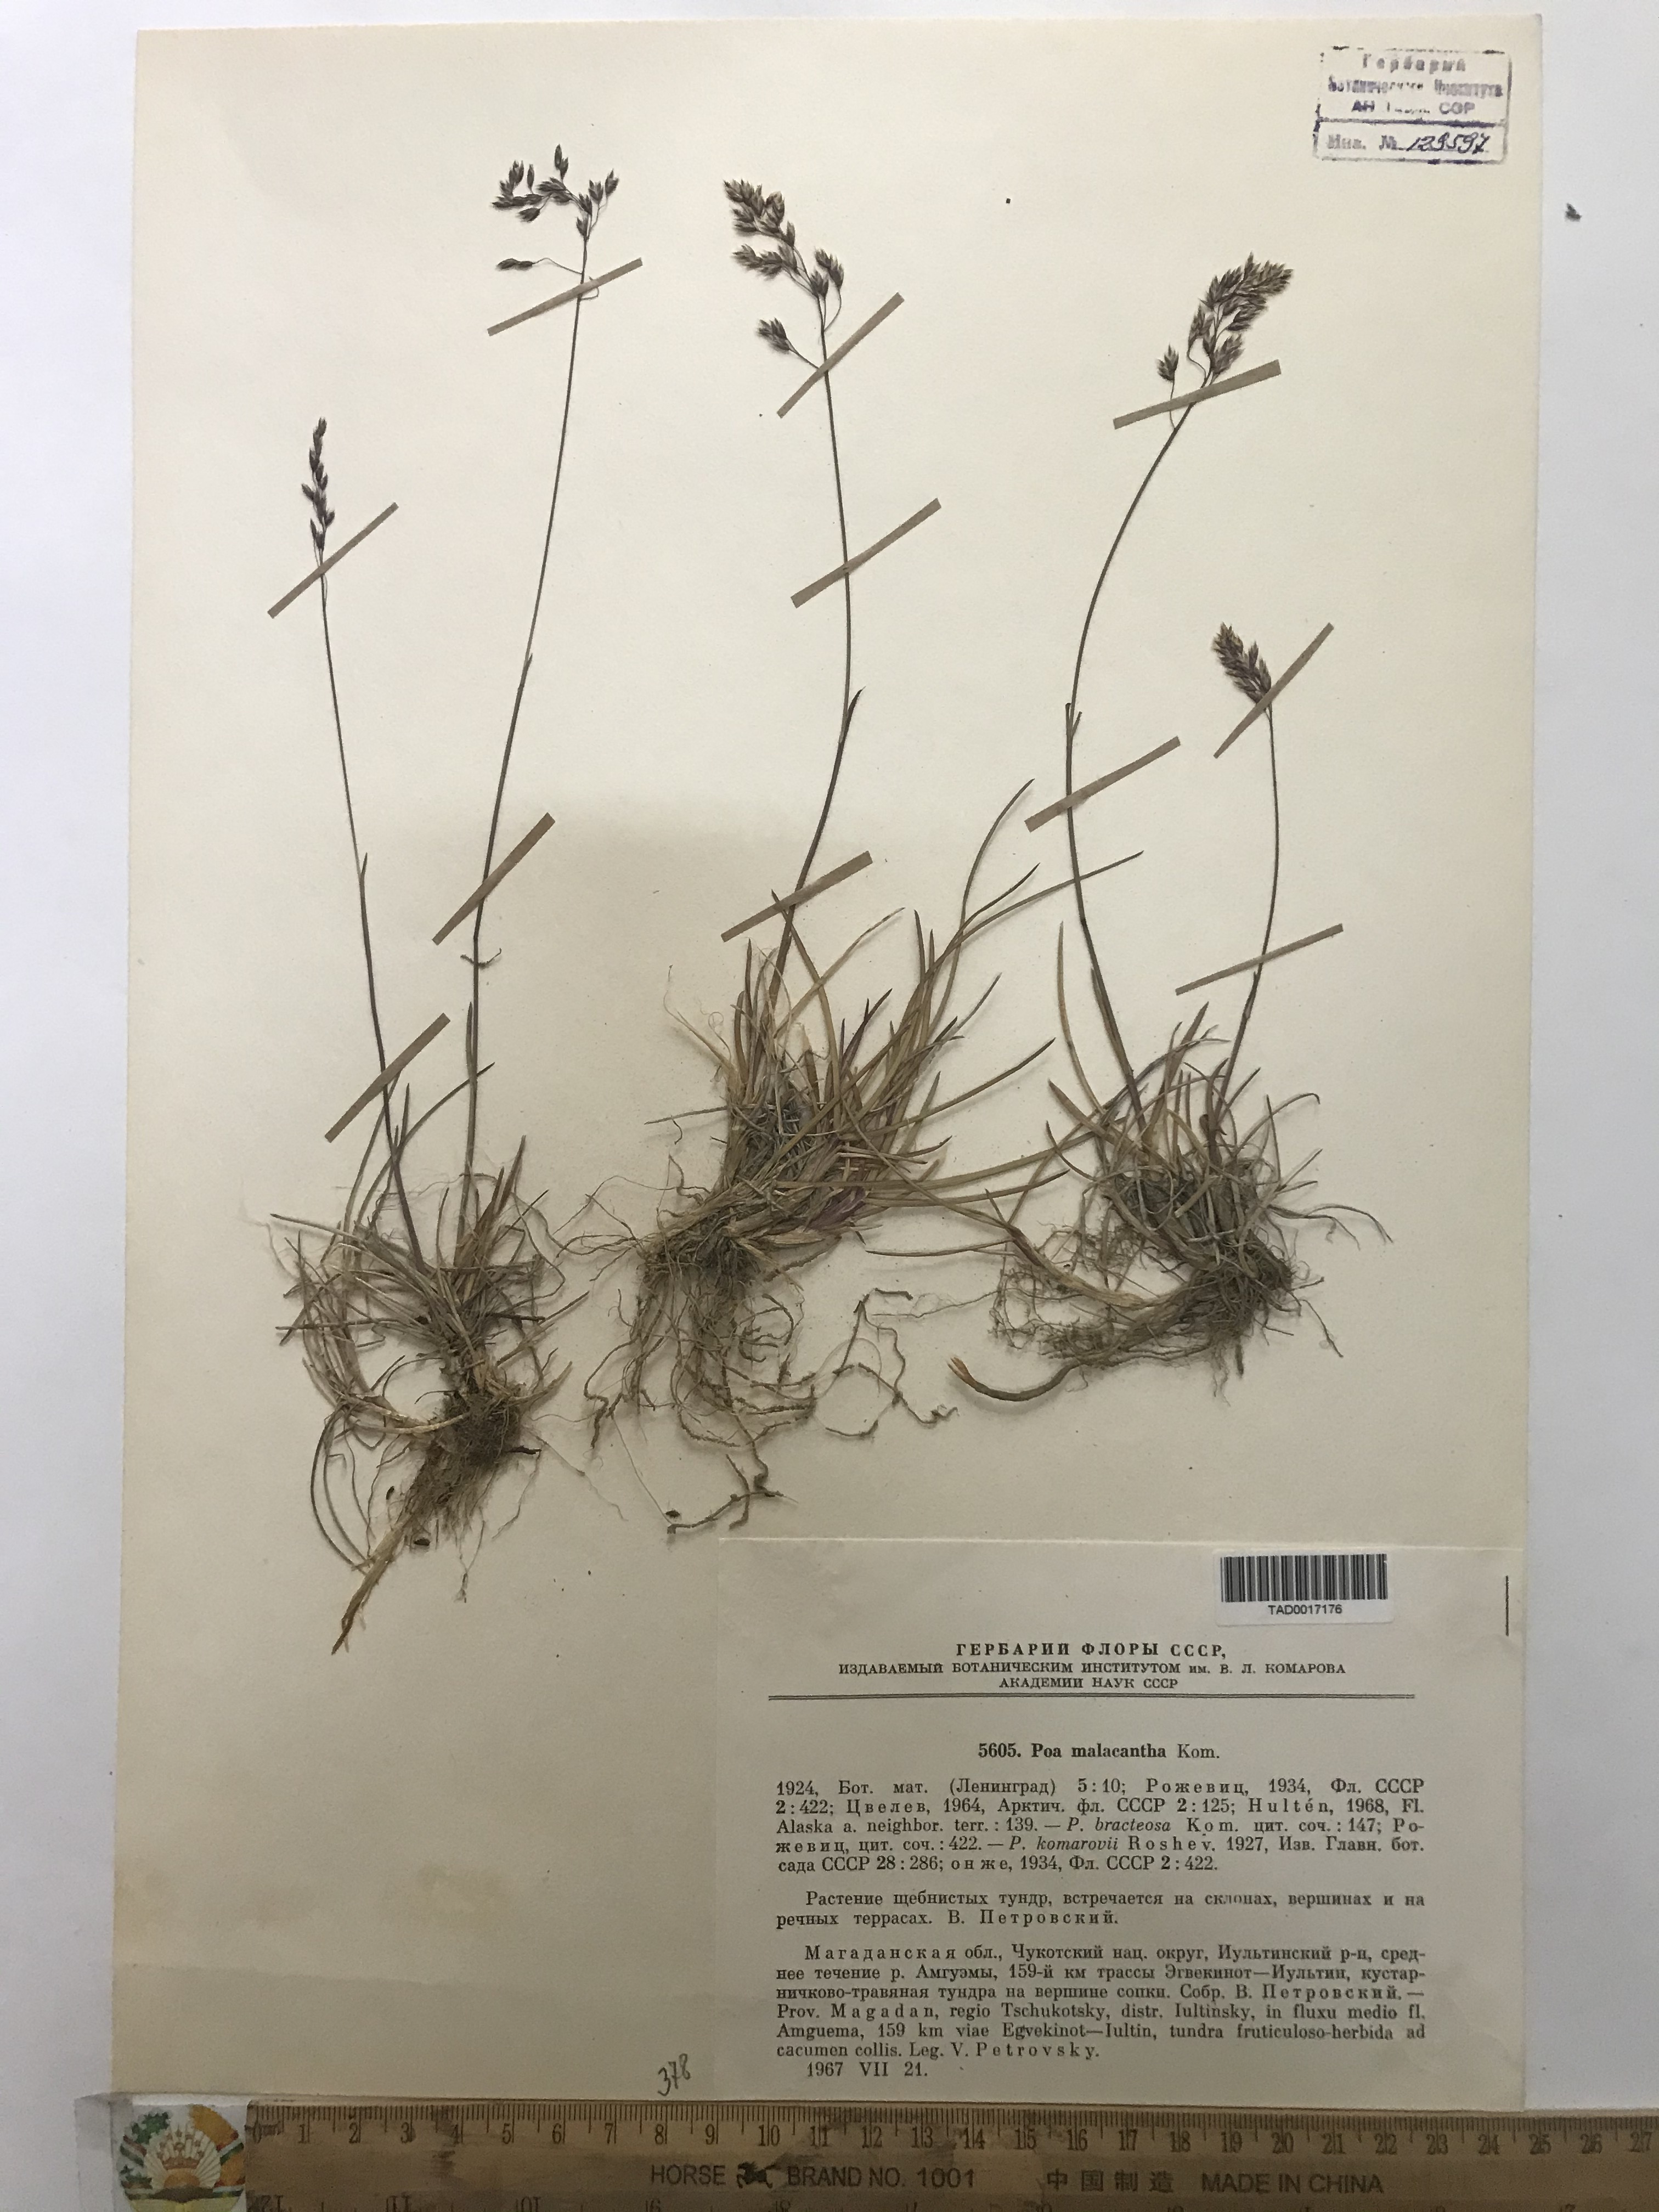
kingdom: Plantae
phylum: Tracheophyta
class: Liliopsida
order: Poales
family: Poaceae
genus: Poa
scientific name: Poa lanata
